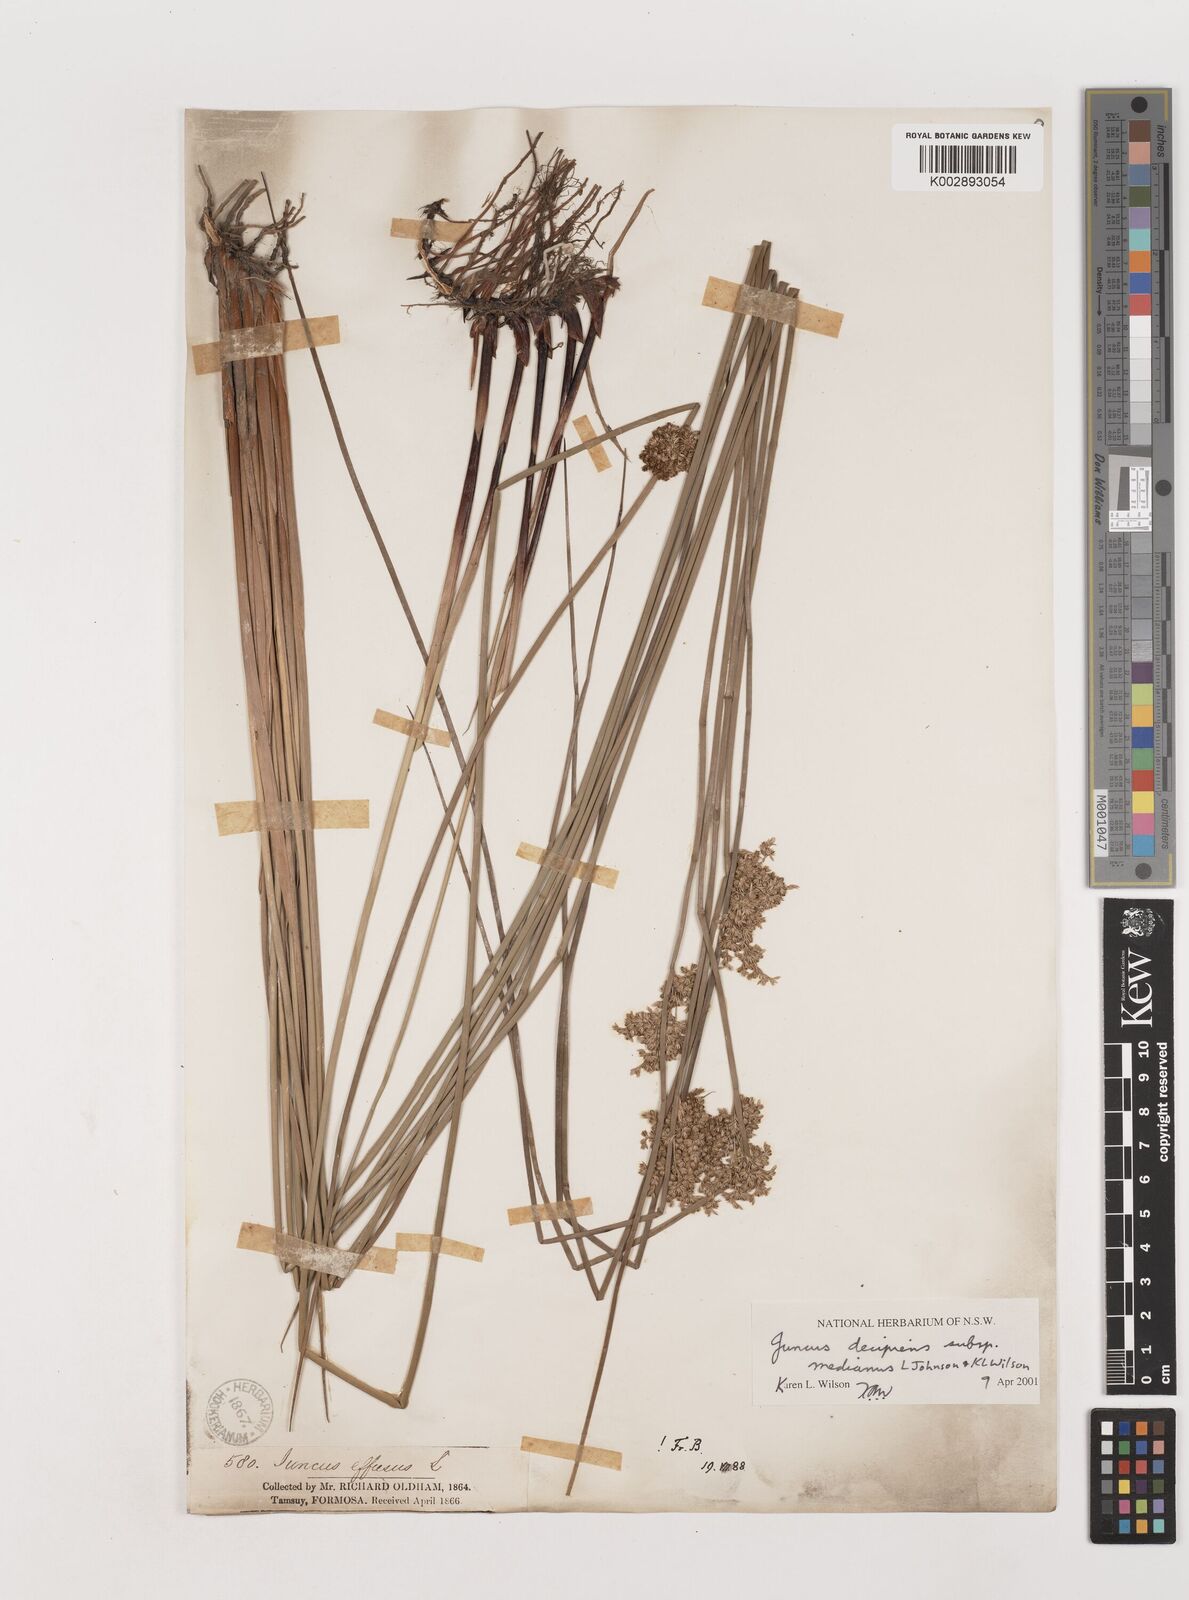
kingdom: Plantae
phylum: Tracheophyta
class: Liliopsida
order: Poales
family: Juncaceae
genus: Juncus
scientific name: Juncus decipiens
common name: Lamp rush
